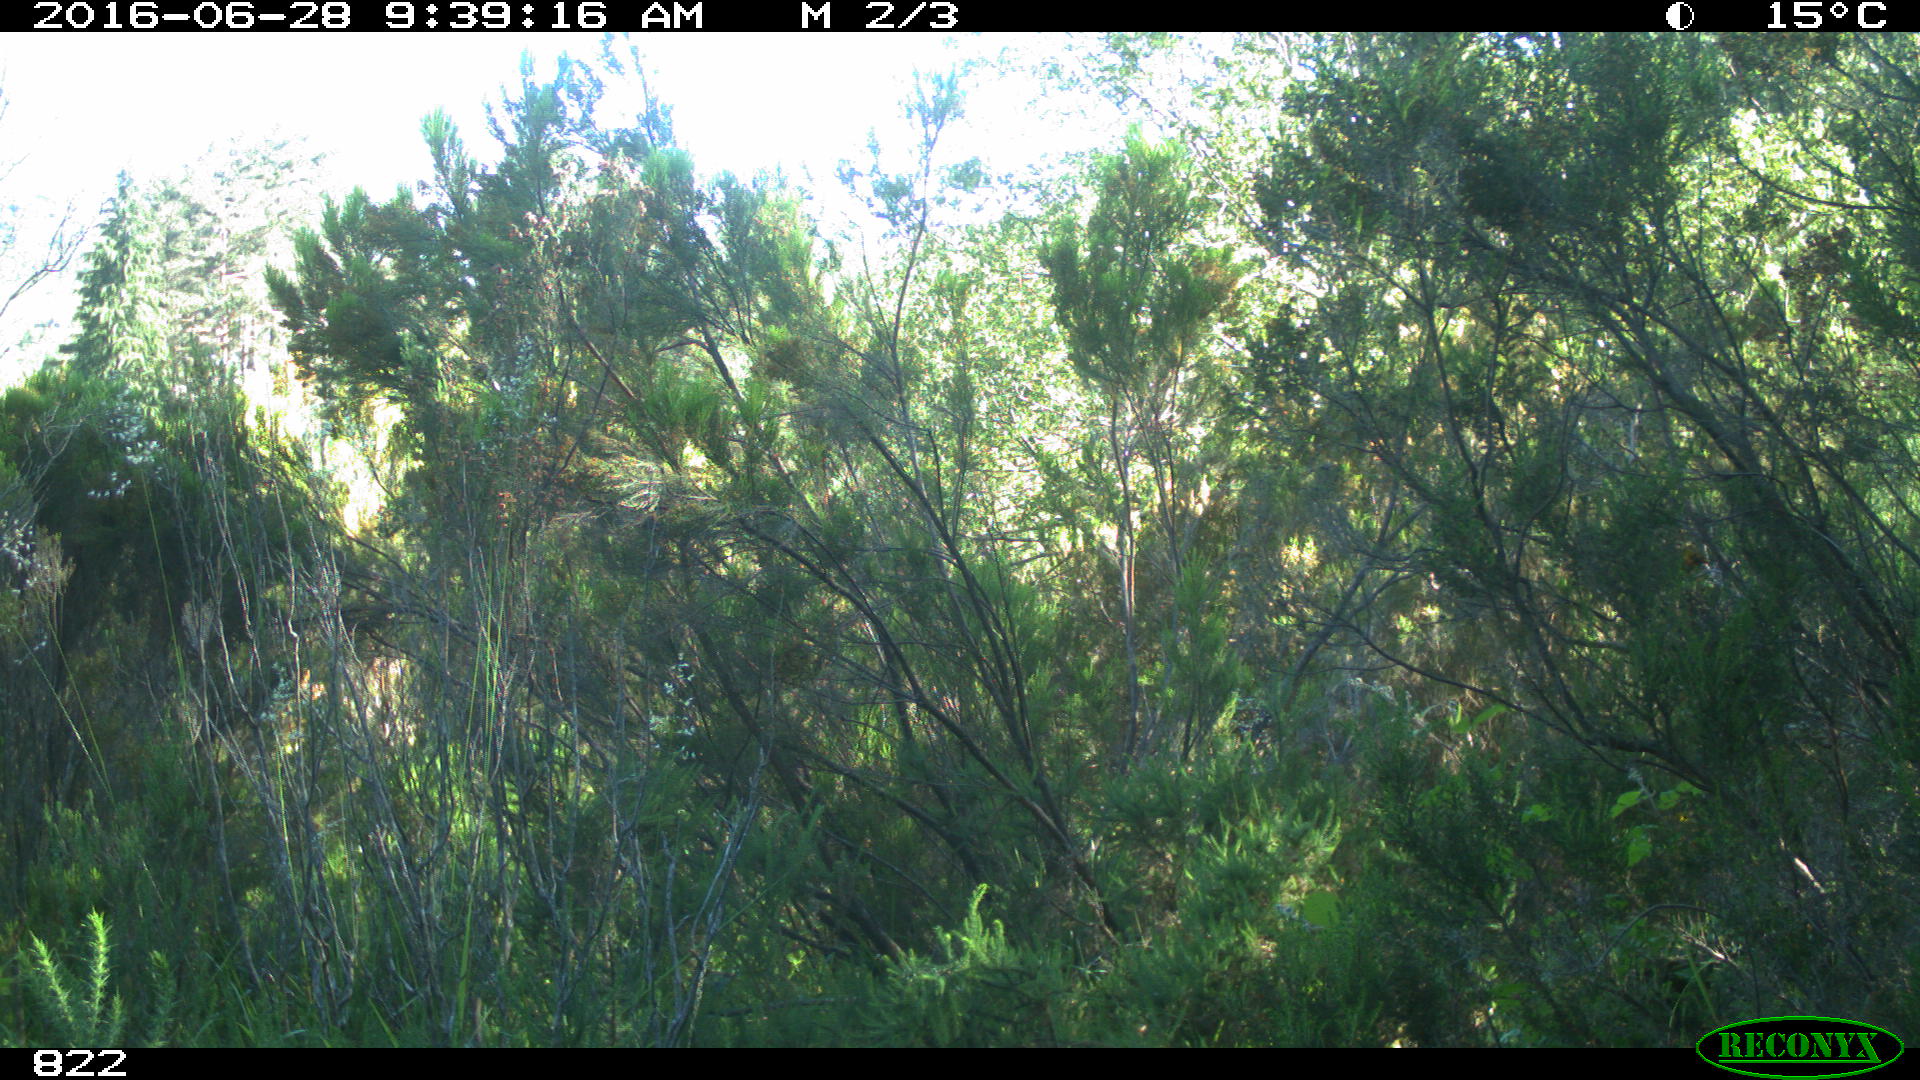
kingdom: Animalia
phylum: Chordata
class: Mammalia
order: Artiodactyla
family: Bovidae
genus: Bos
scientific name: Bos taurus
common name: Domesticated cattle
